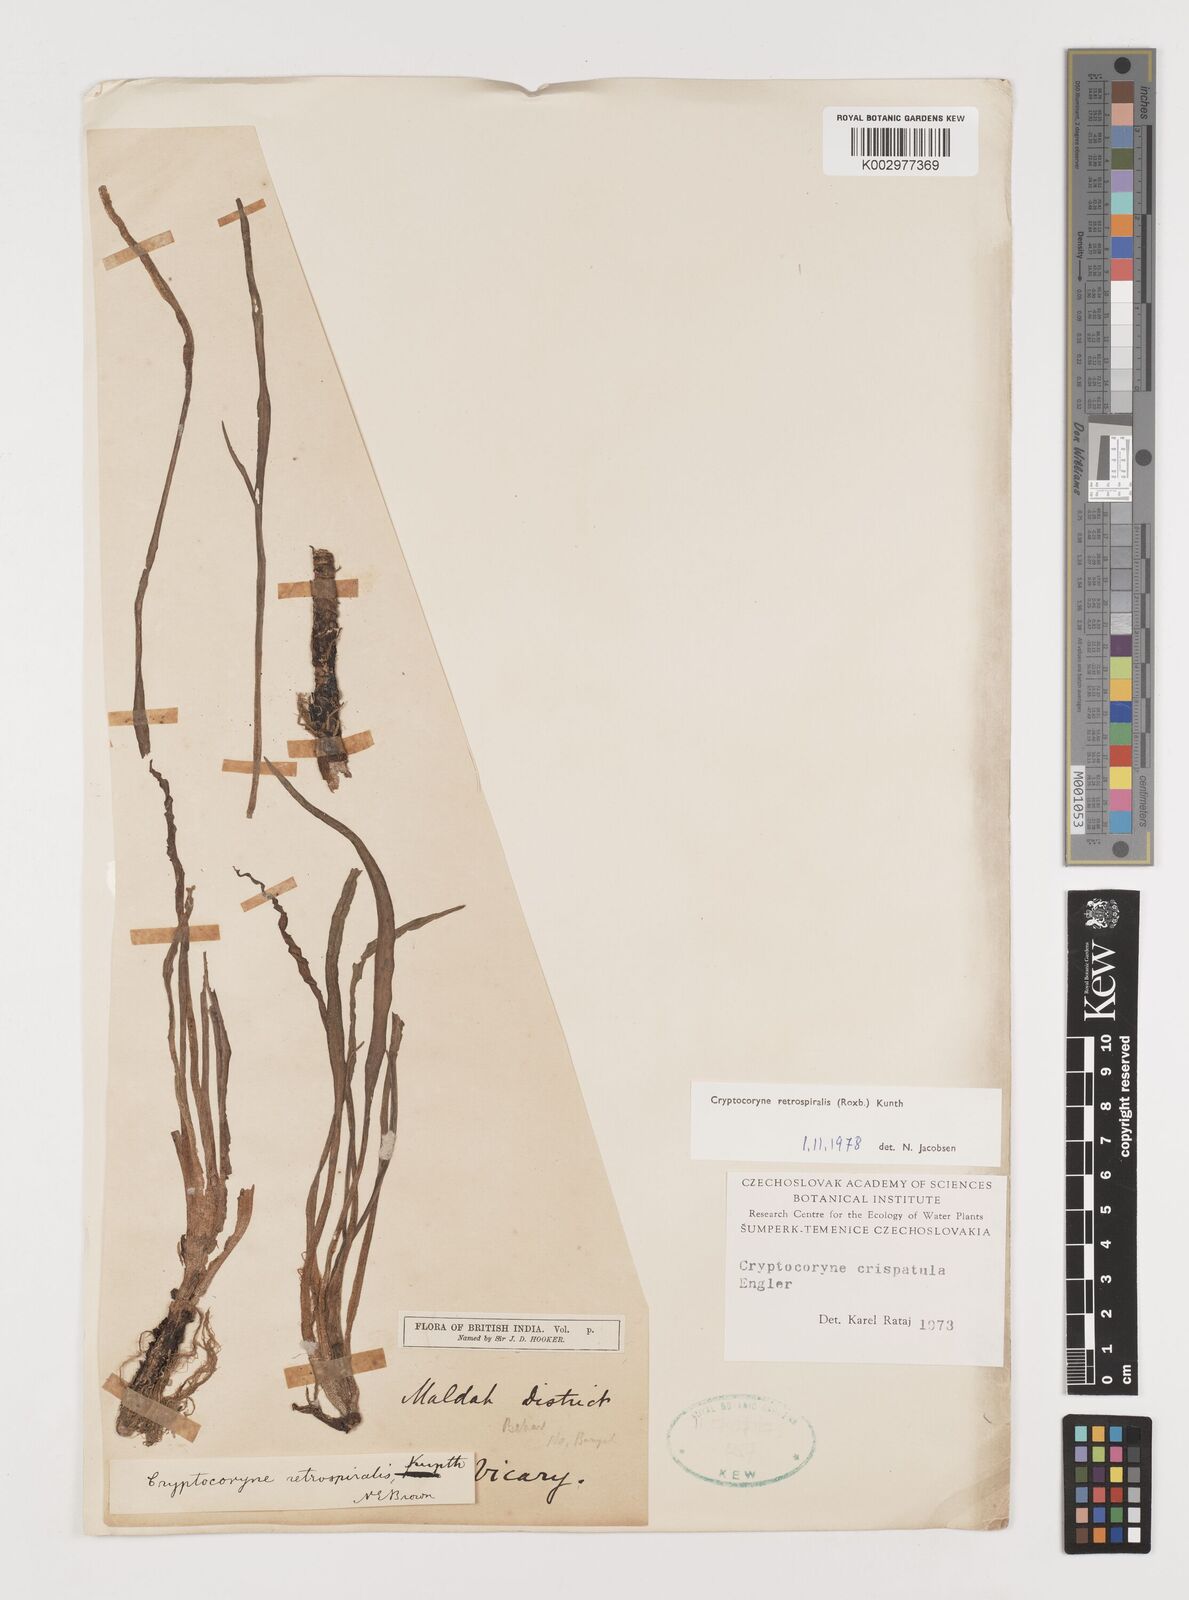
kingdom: Plantae
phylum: Tracheophyta
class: Liliopsida
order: Alismatales
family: Araceae
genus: Cryptocoryne
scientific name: Cryptocoryne retrospiralis
